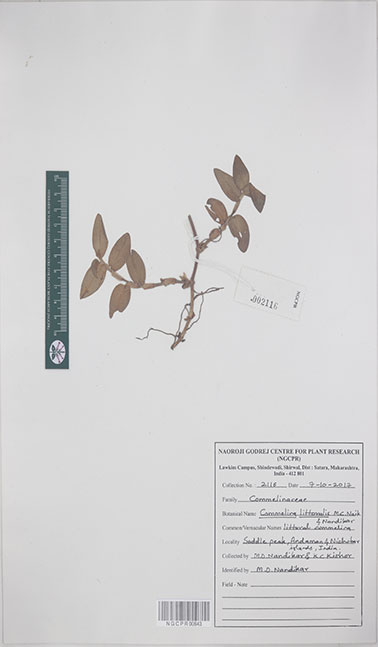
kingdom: Plantae
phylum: Tracheophyta
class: Liliopsida
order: Commelinales
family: Commelinaceae
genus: Commelina
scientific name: Commelina littoralis
